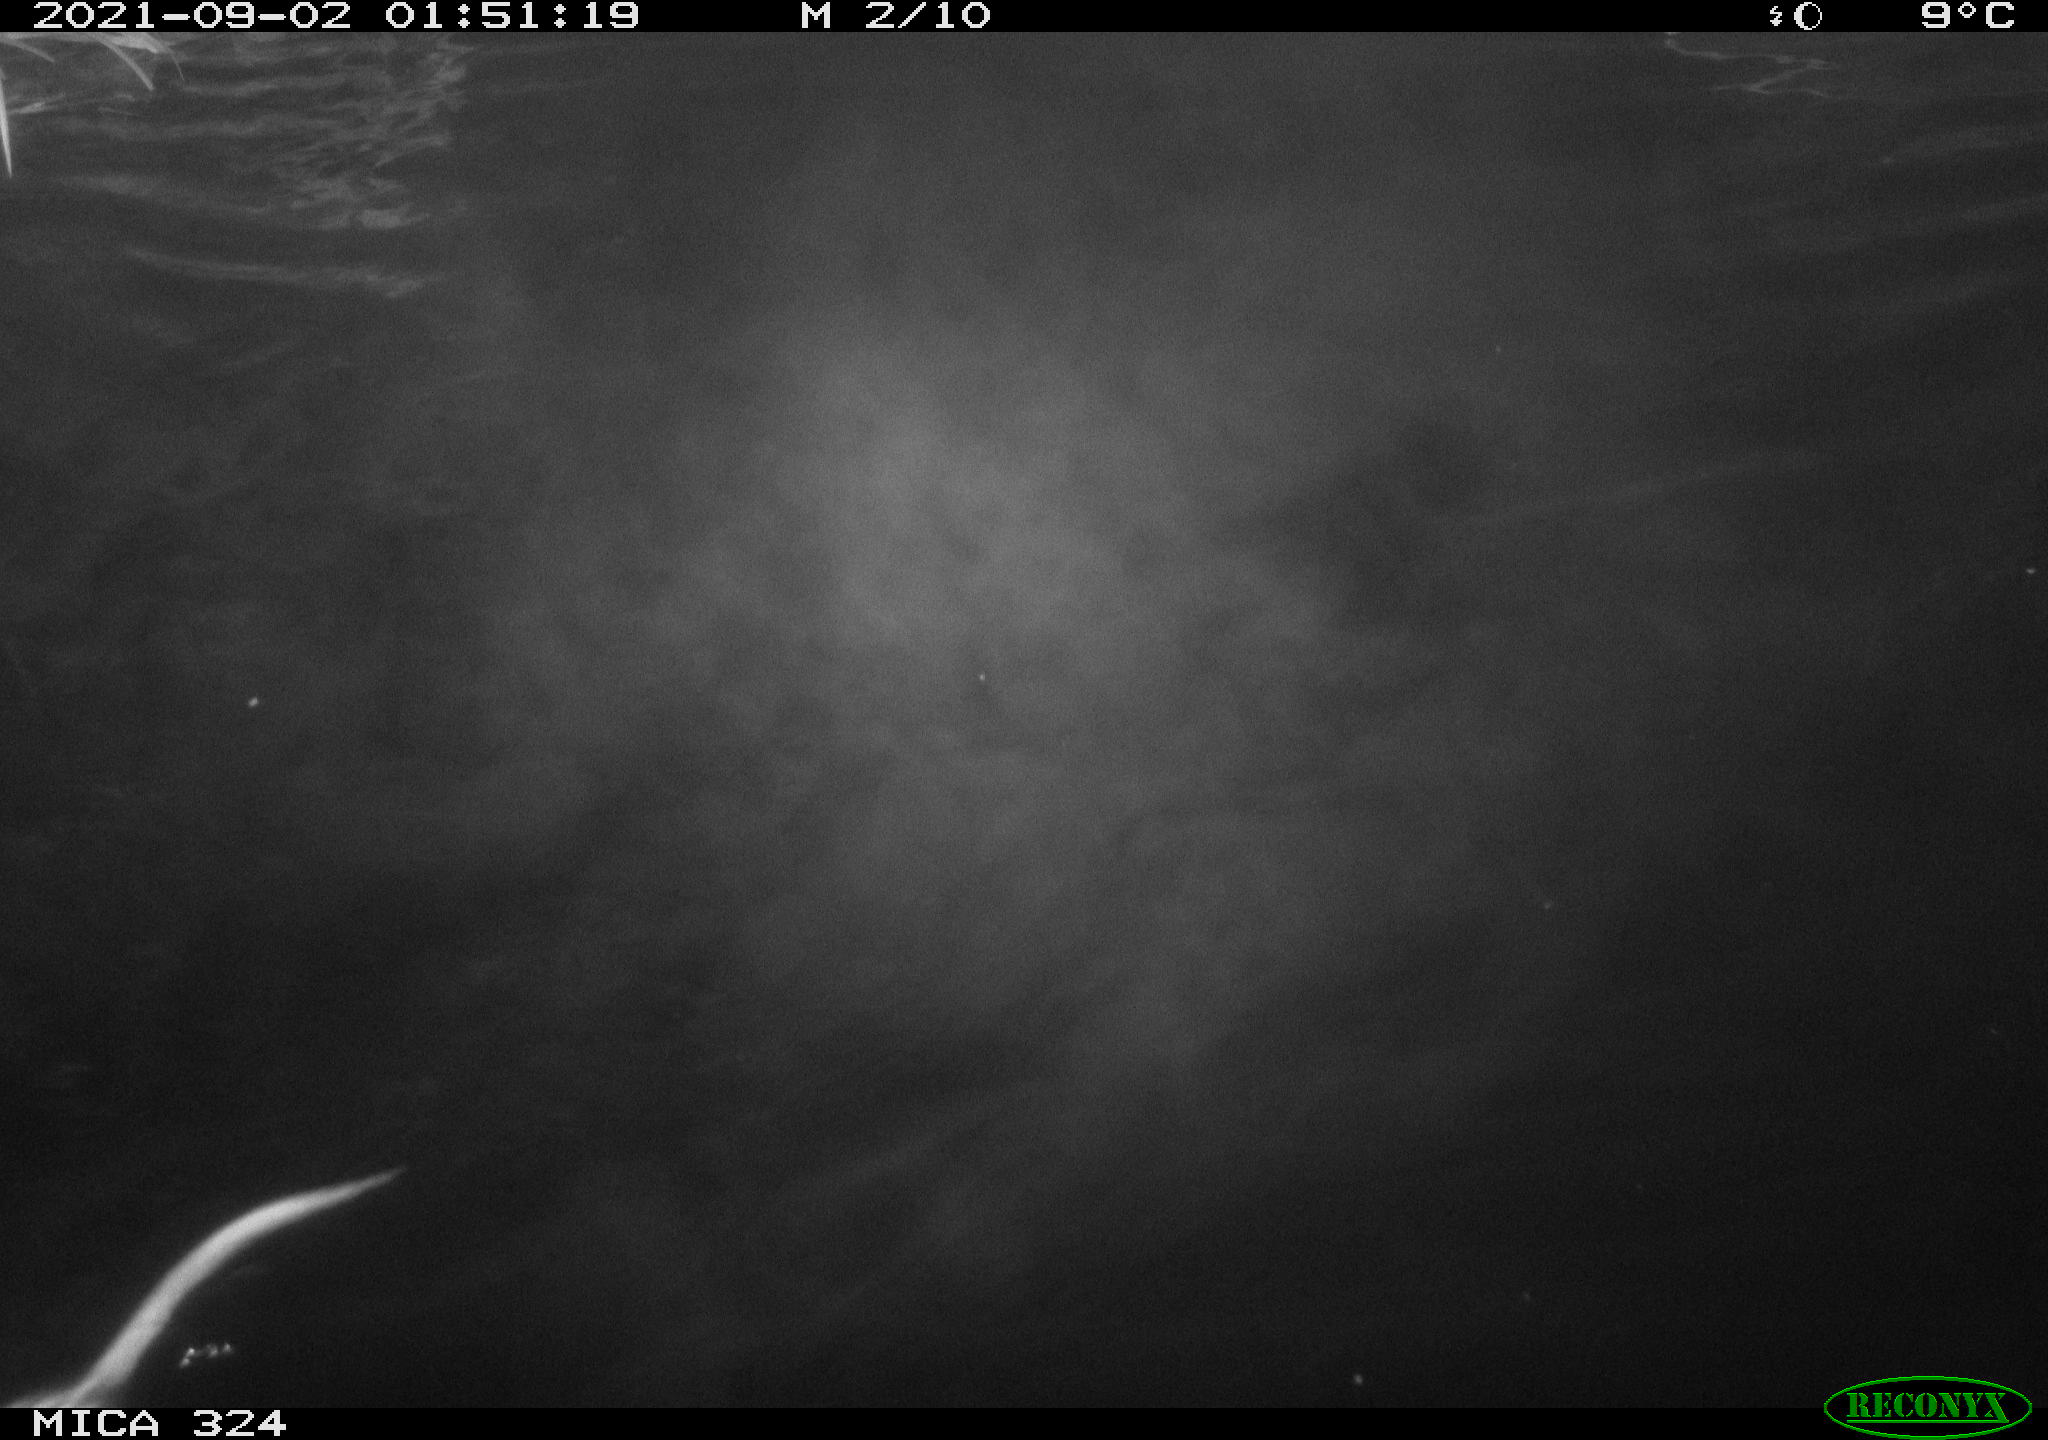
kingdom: Animalia
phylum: Chordata
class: Mammalia
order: Rodentia
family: Cricetidae
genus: Ondatra
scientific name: Ondatra zibethicus
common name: Muskrat
